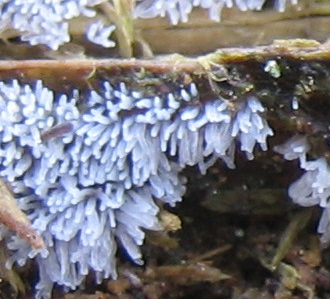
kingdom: Protozoa
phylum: Mycetozoa
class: Protosteliomycetes
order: Ceratiomyxales
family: Ceratiomyxaceae
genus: Ceratiomyxa
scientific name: Ceratiomyxa fruticulosa
